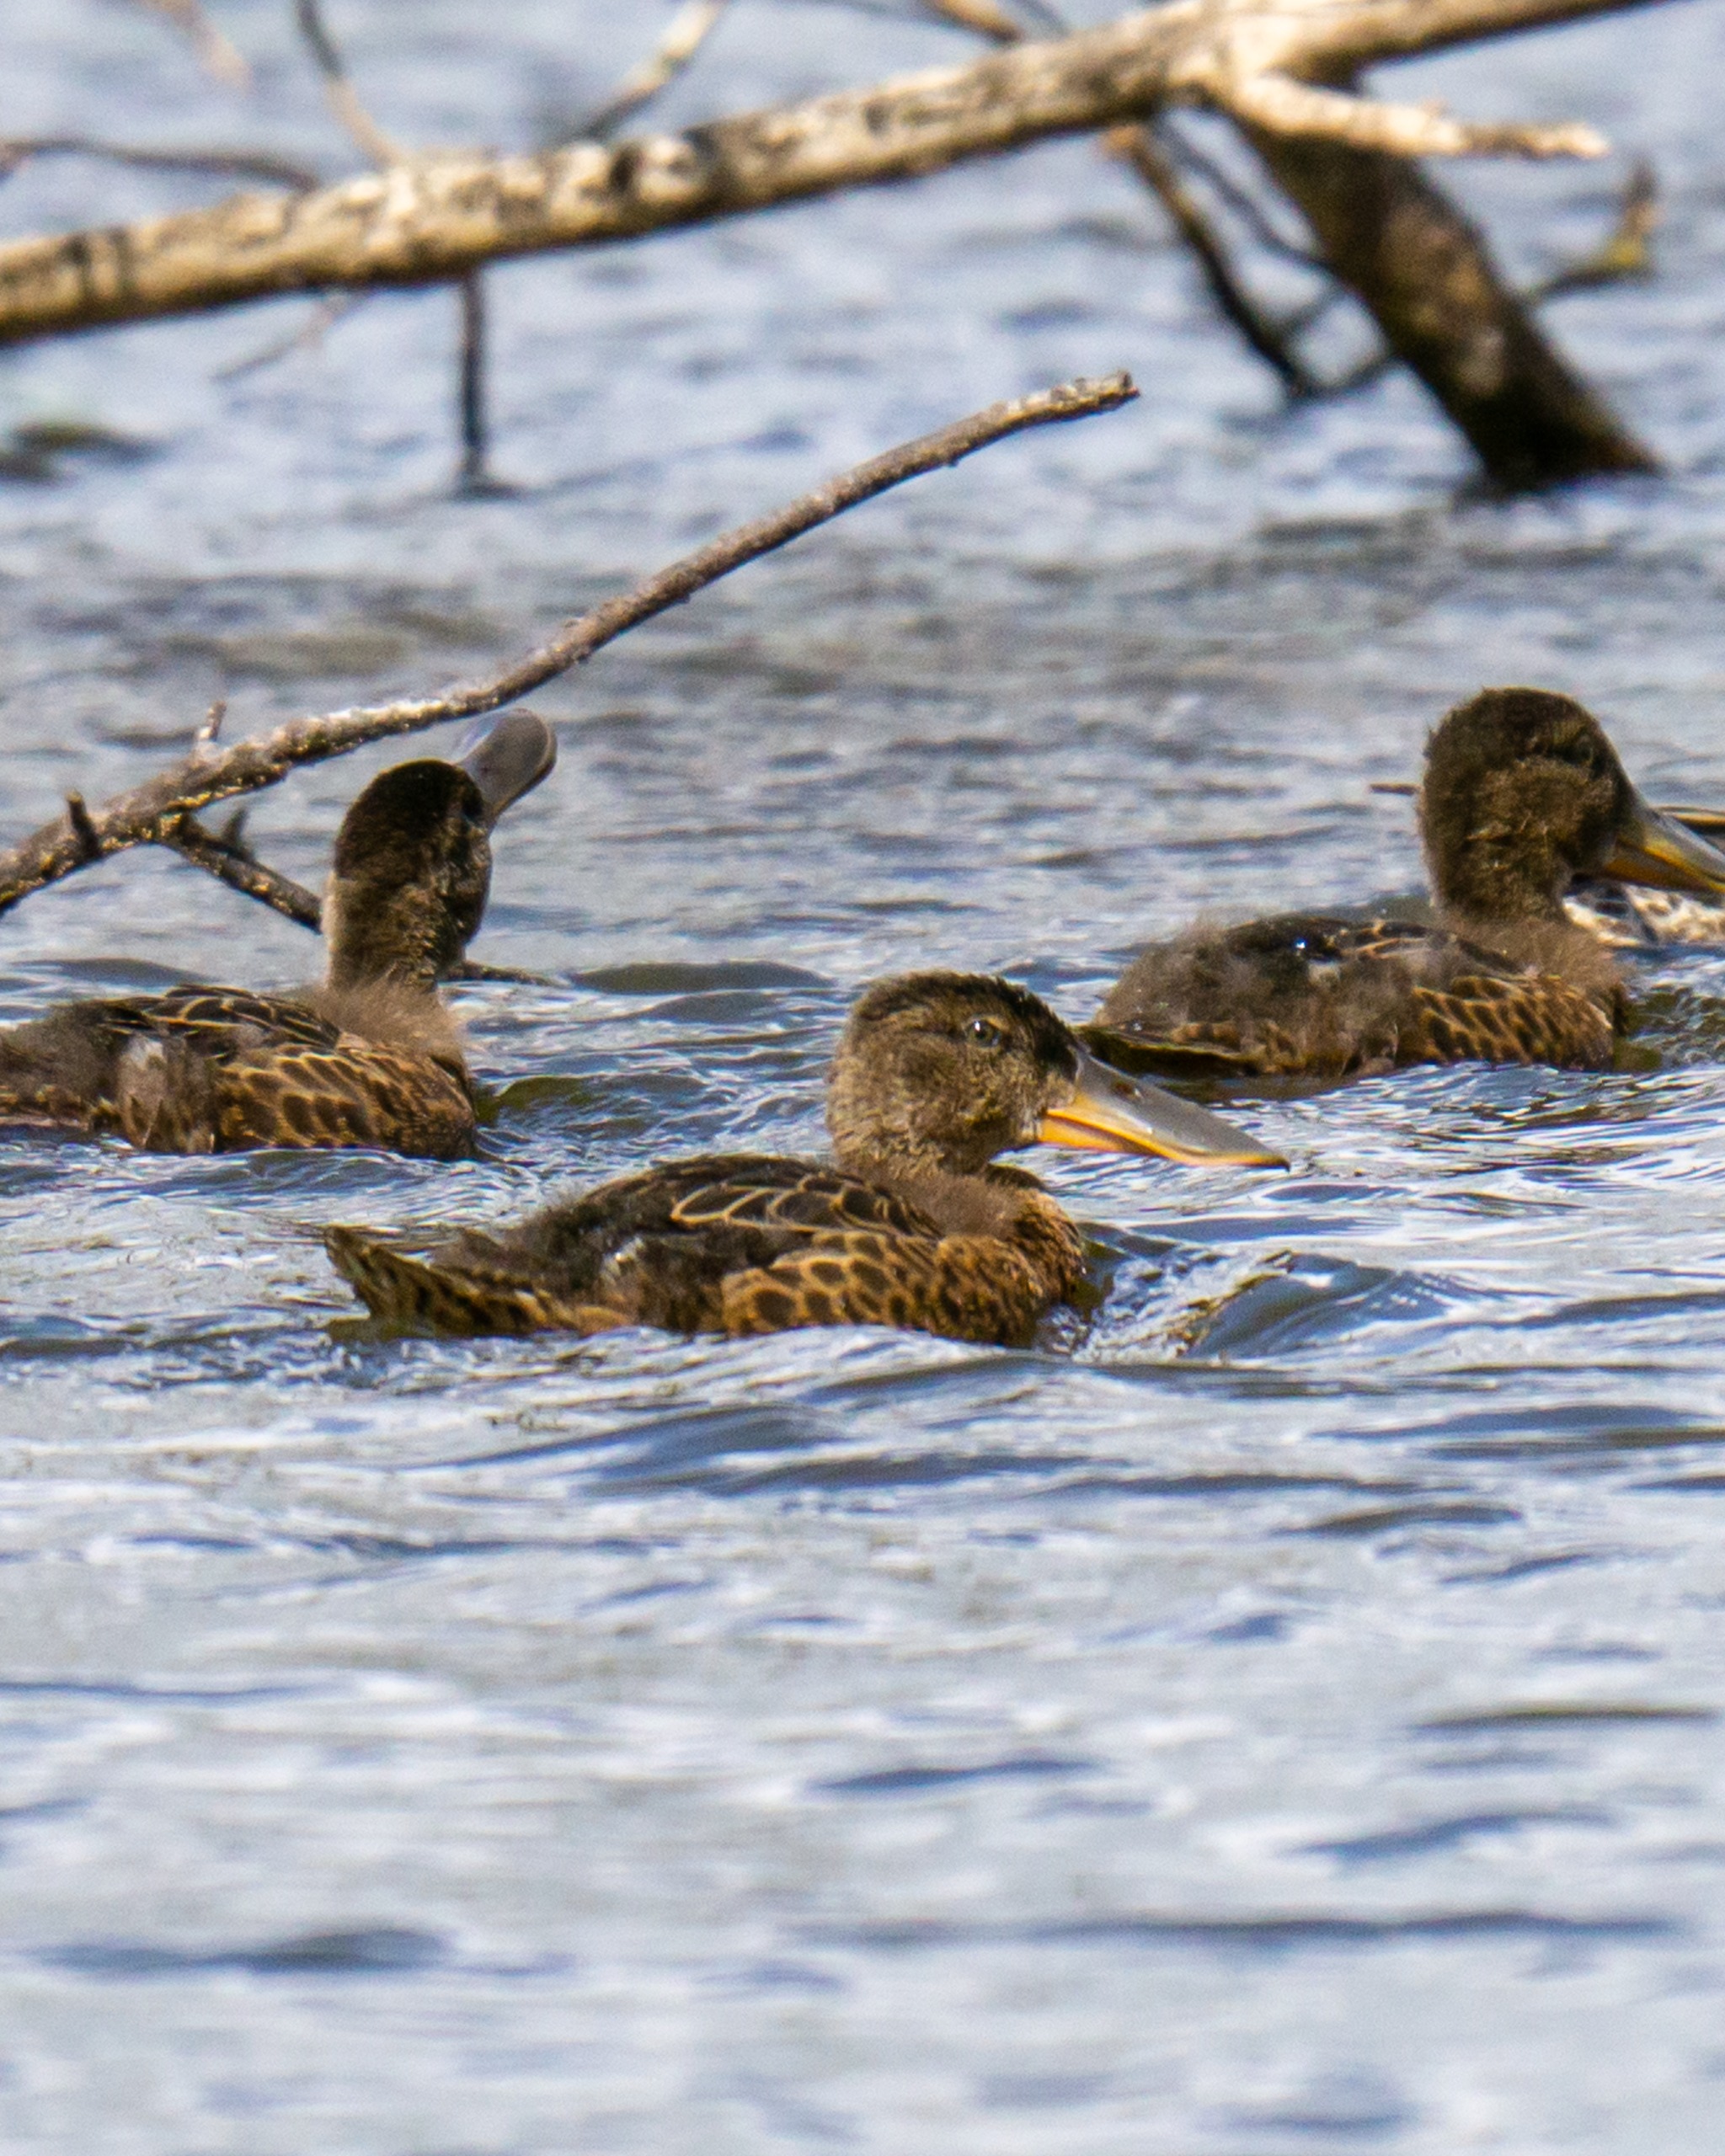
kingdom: Animalia
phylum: Chordata
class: Aves
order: Anseriformes
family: Anatidae
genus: Spatula
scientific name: Spatula clypeata
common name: Skeand
